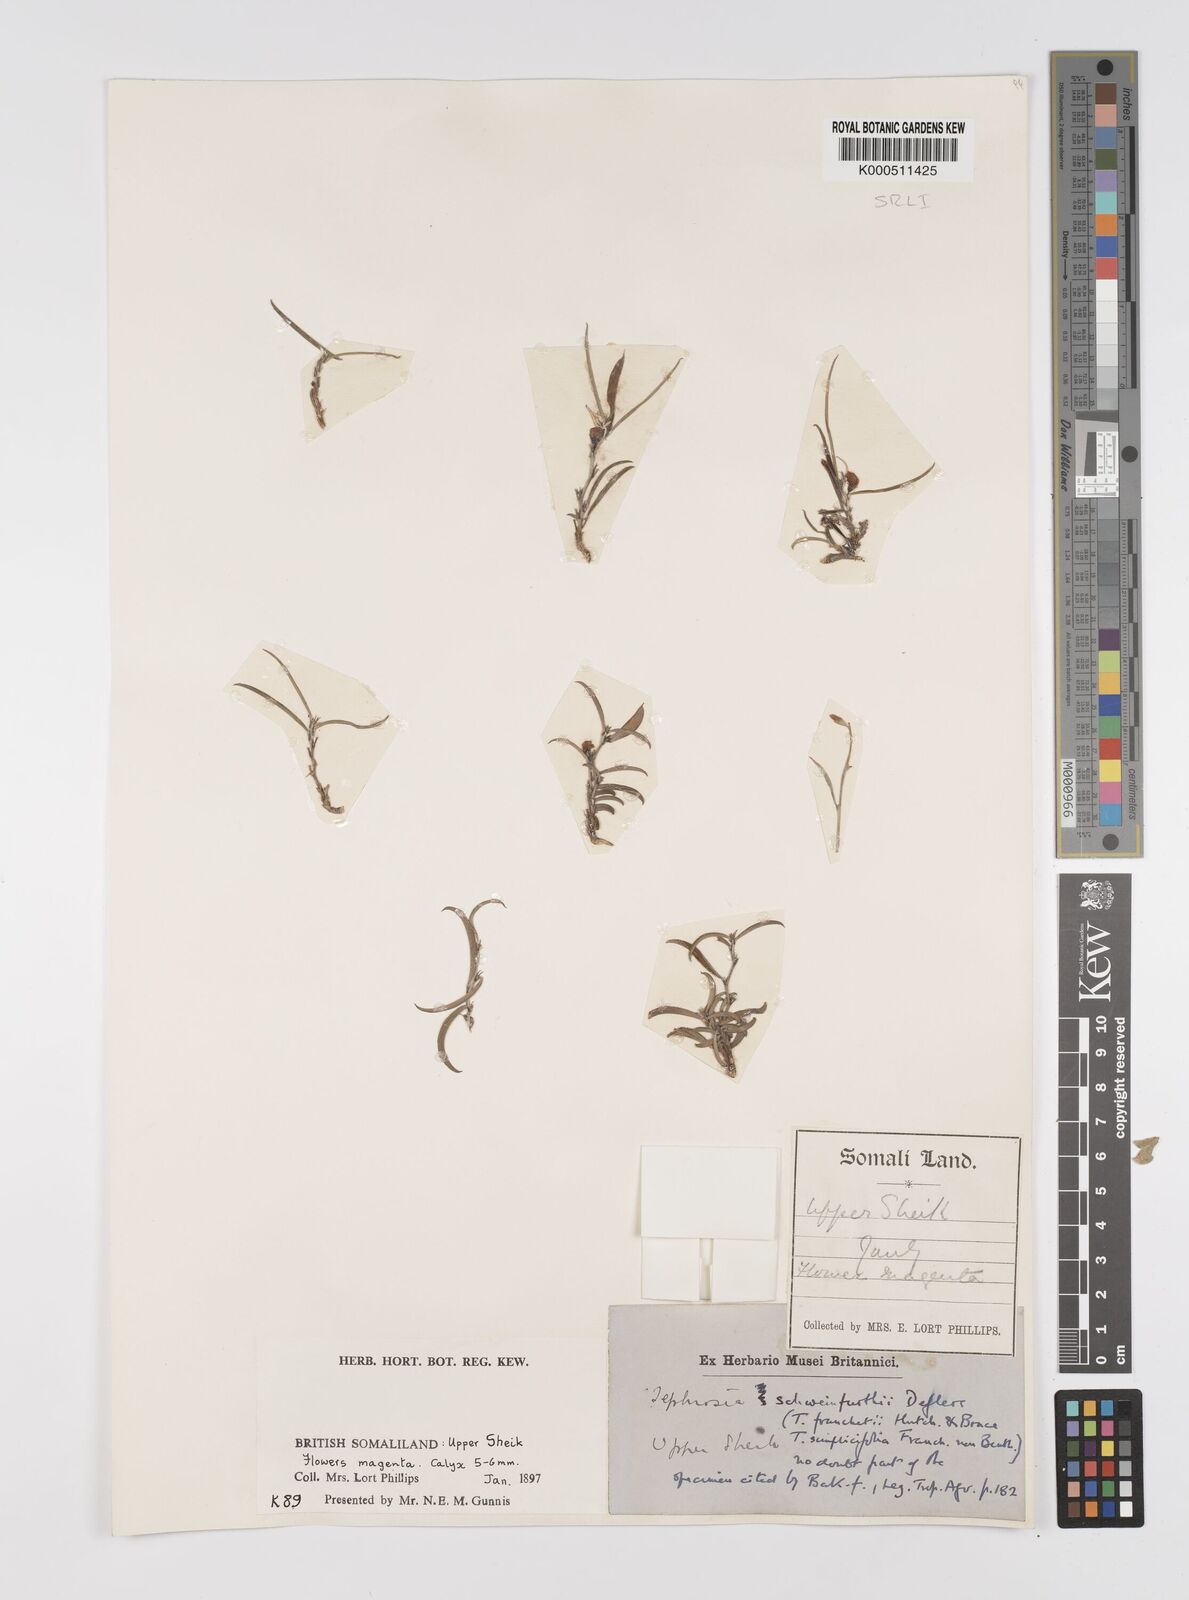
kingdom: Plantae
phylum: Tracheophyta
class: Magnoliopsida
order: Fabales
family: Fabaceae
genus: Tephrosia
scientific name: Tephrosia heterophylla
